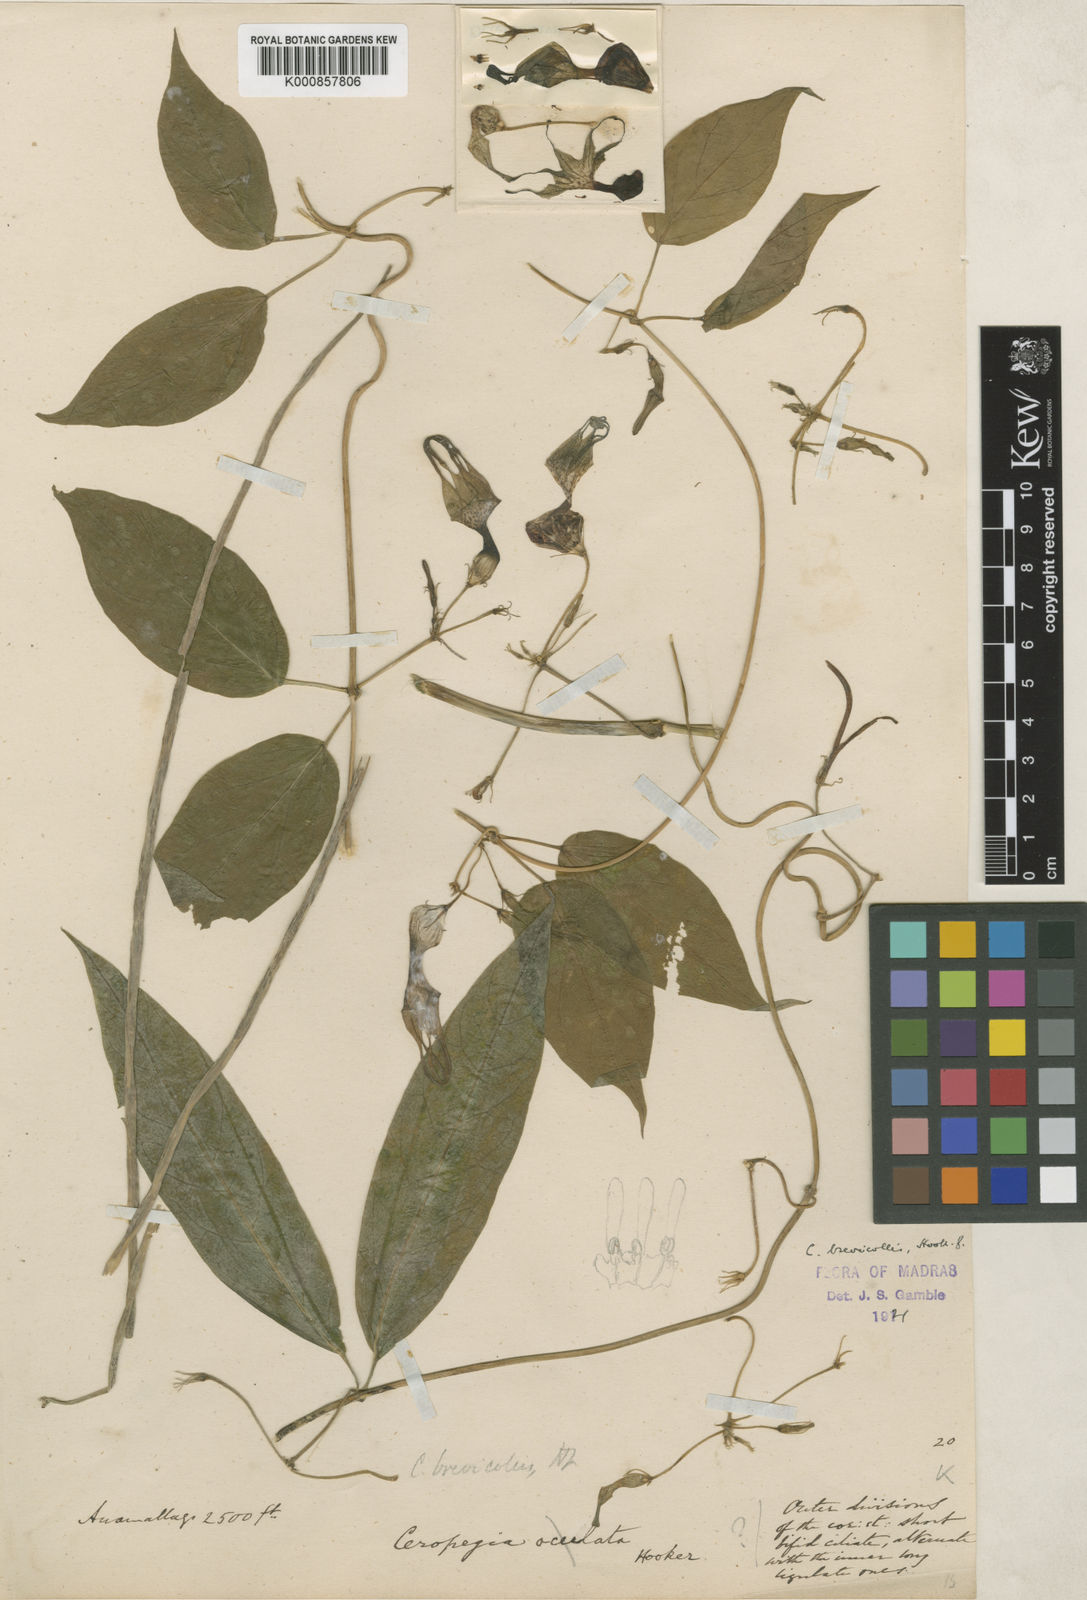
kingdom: Plantae
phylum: Tracheophyta
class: Magnoliopsida
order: Gentianales
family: Apocynaceae
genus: Ceropegia
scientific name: Ceropegia decaisneana
